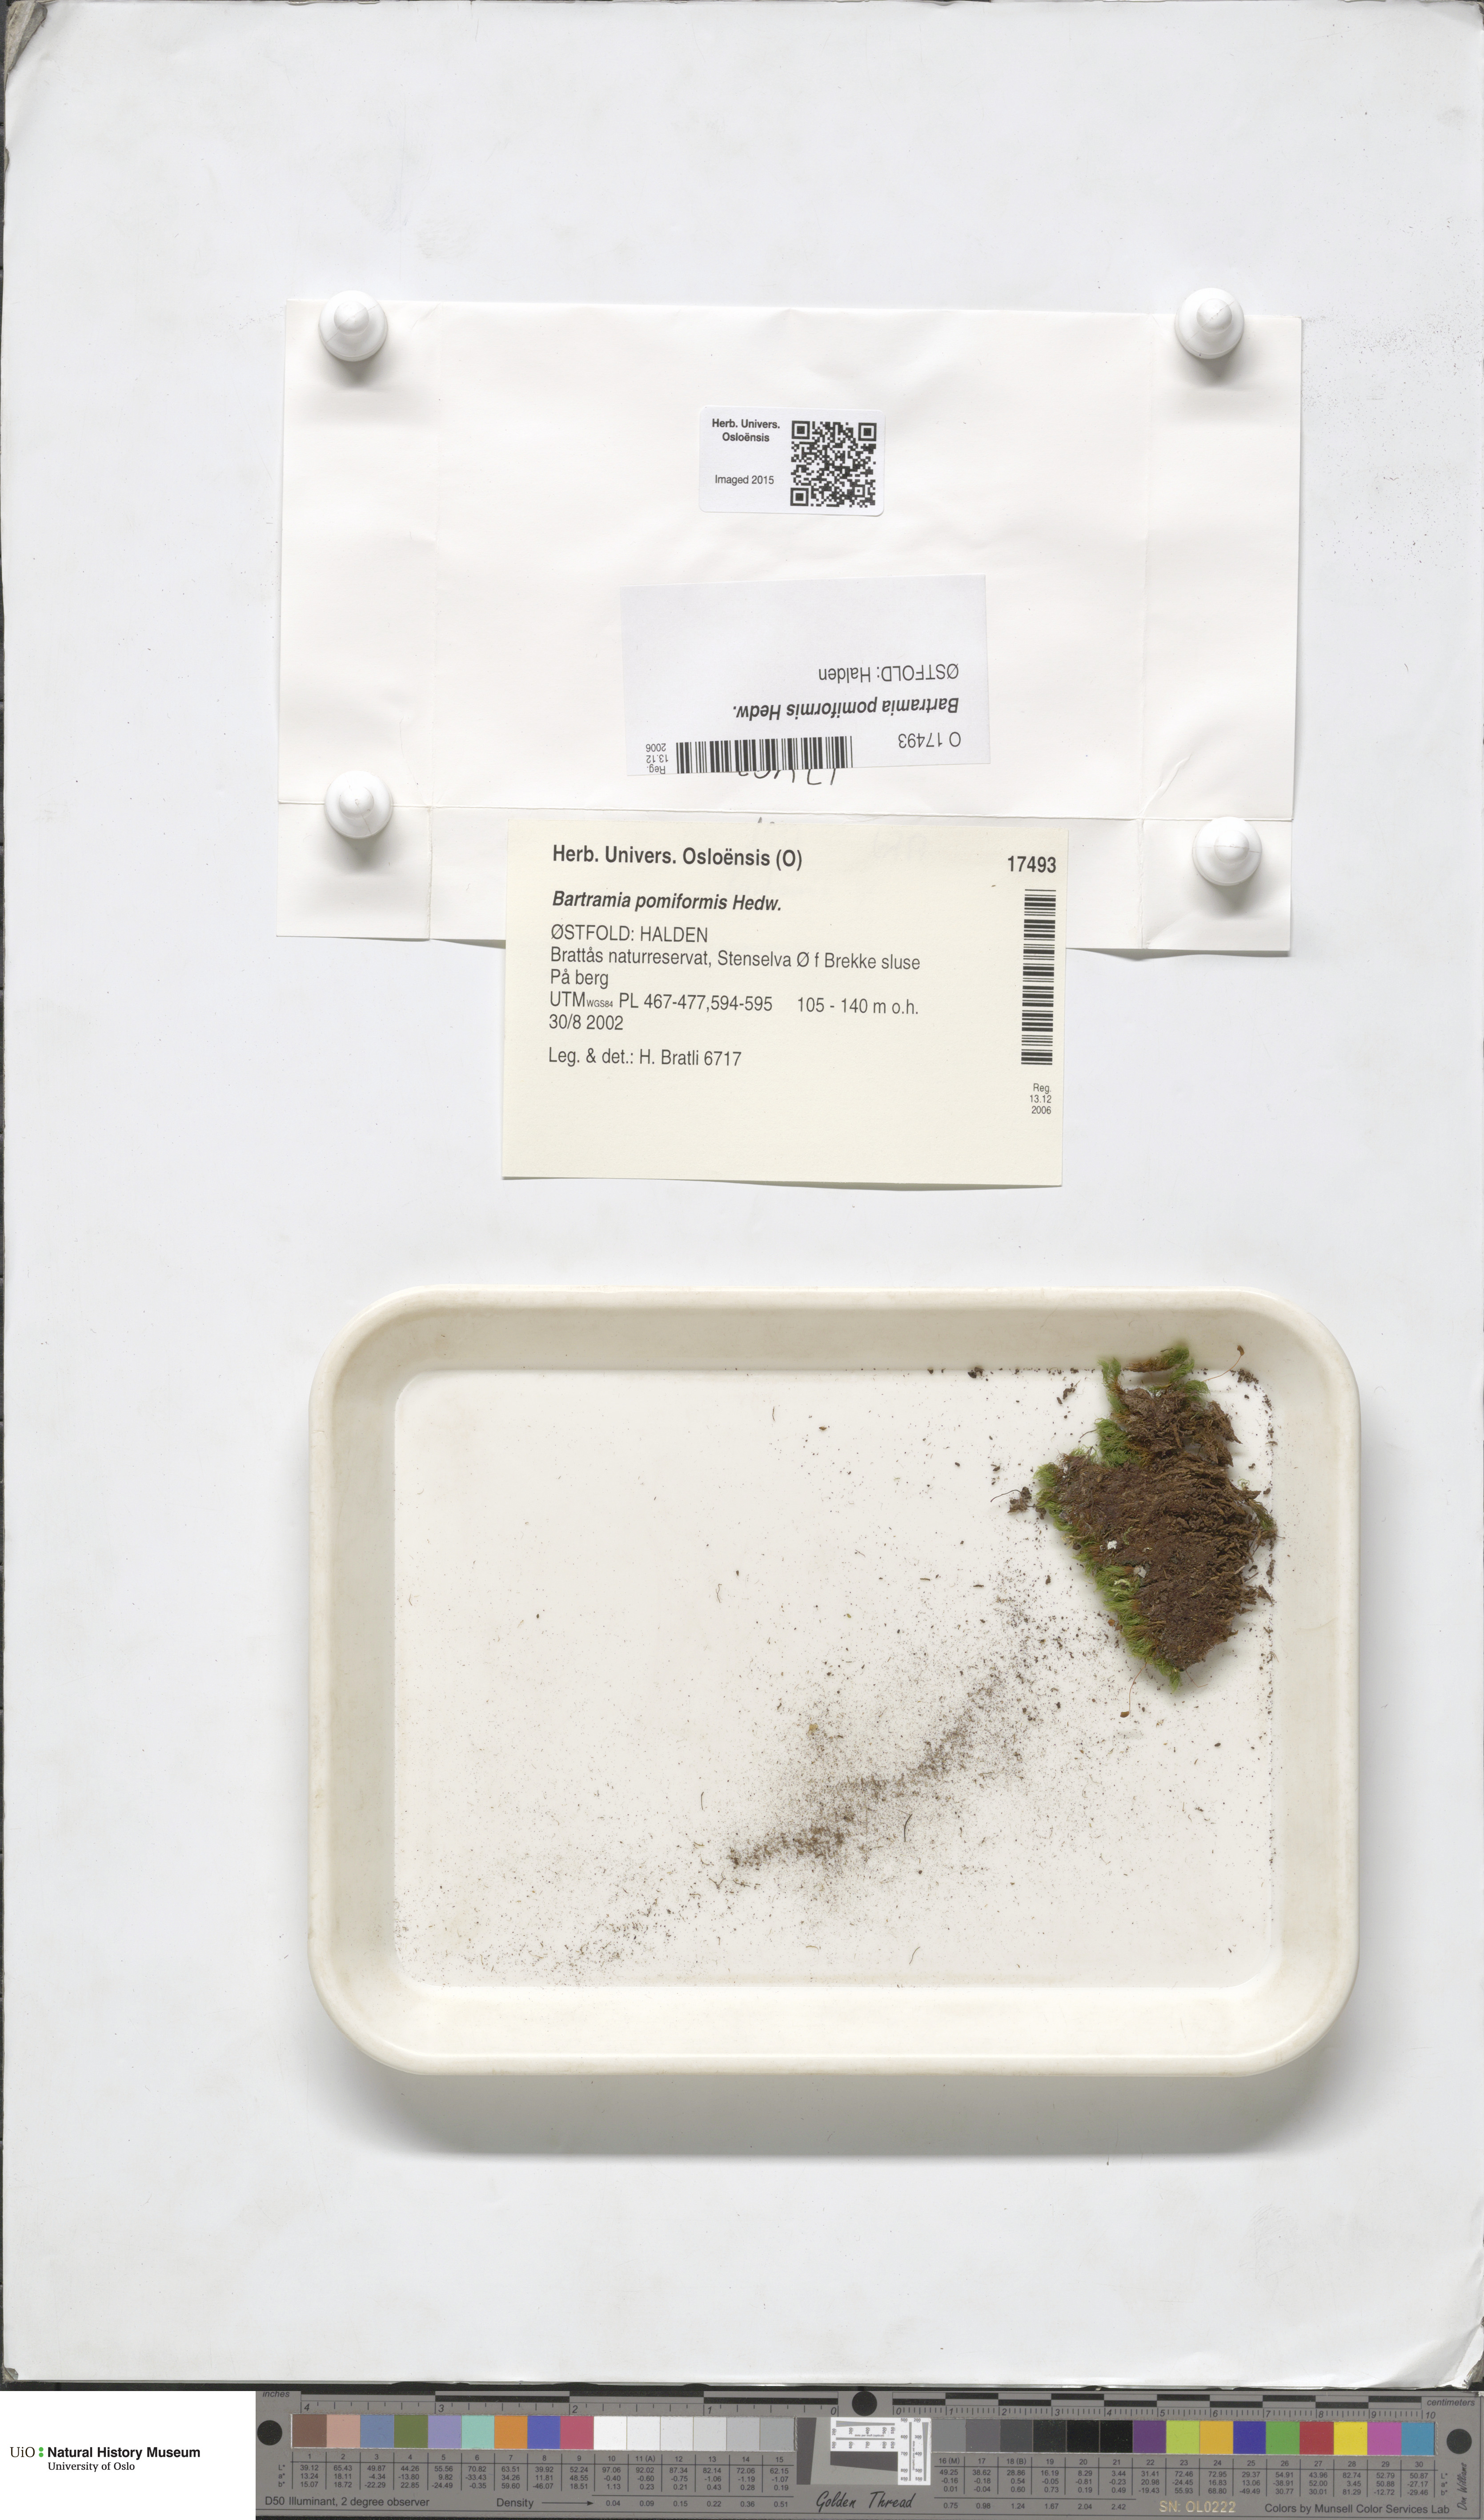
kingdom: Plantae
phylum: Bryophyta
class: Bryopsida
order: Bartramiales
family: Bartramiaceae
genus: Bartramia
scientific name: Bartramia pomiformis
